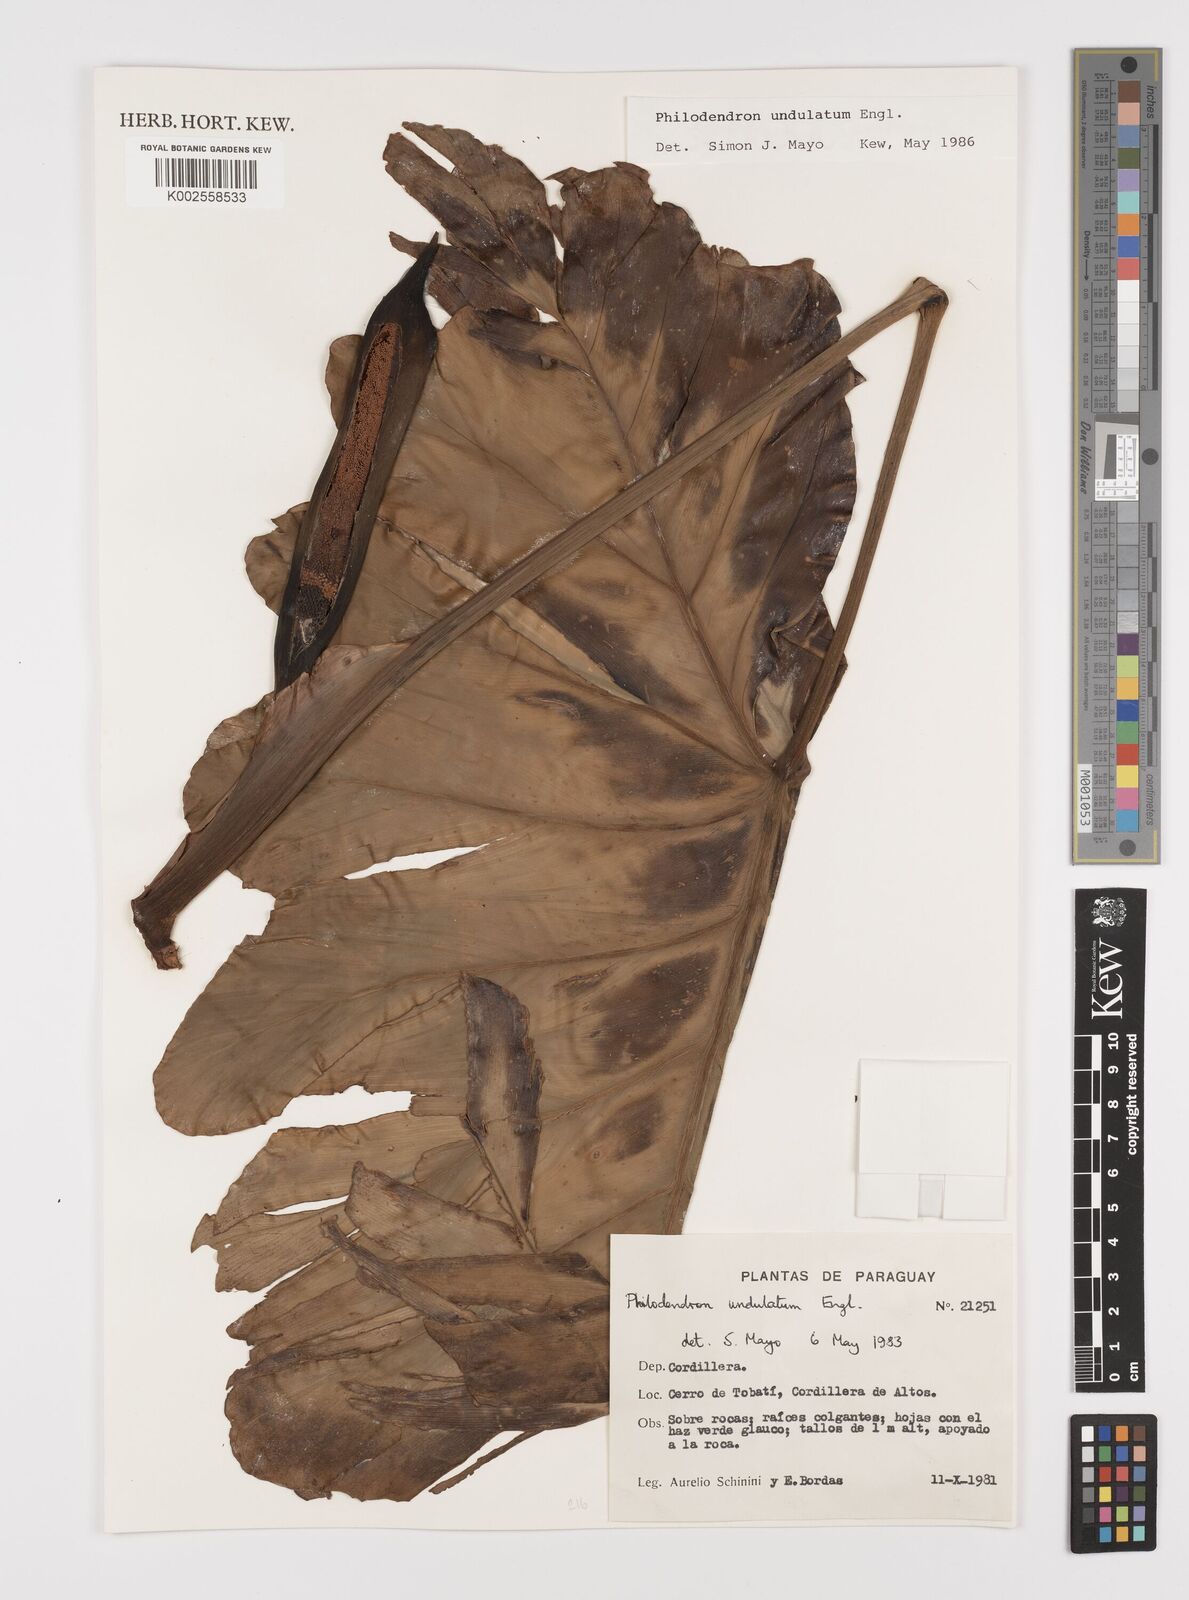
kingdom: Plantae
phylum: Tracheophyta
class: Liliopsida
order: Alismatales
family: Araceae
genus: Thaumatophyllum
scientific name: Thaumatophyllum undulatum
